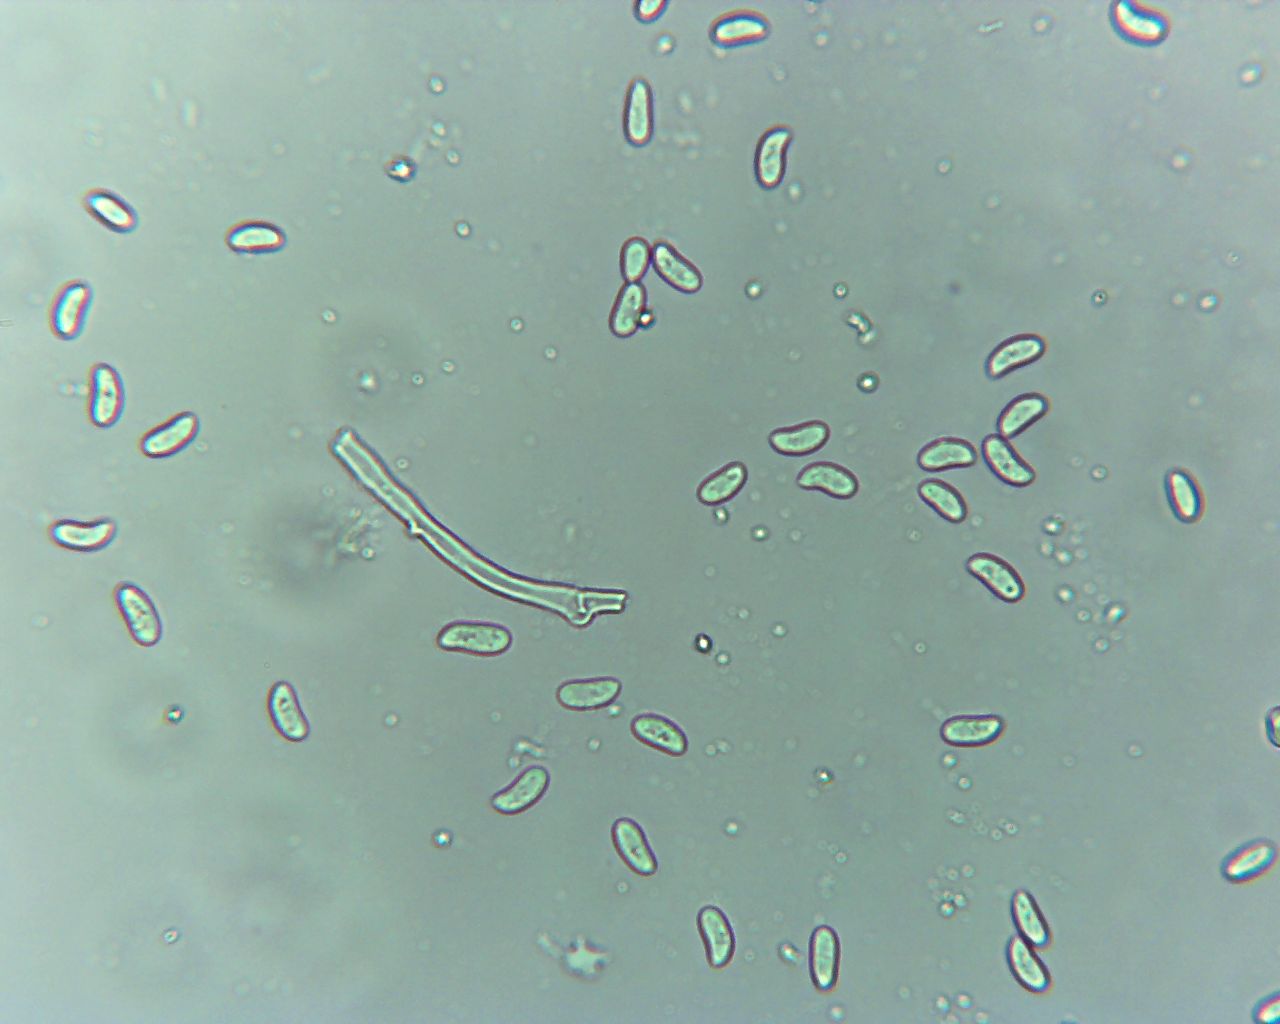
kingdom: Fungi
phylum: Basidiomycota
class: Agaricomycetes
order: Hymenochaetales
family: Schizoporaceae
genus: Xylodon
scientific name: Xylodon radula
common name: grovtandet kalkskind
